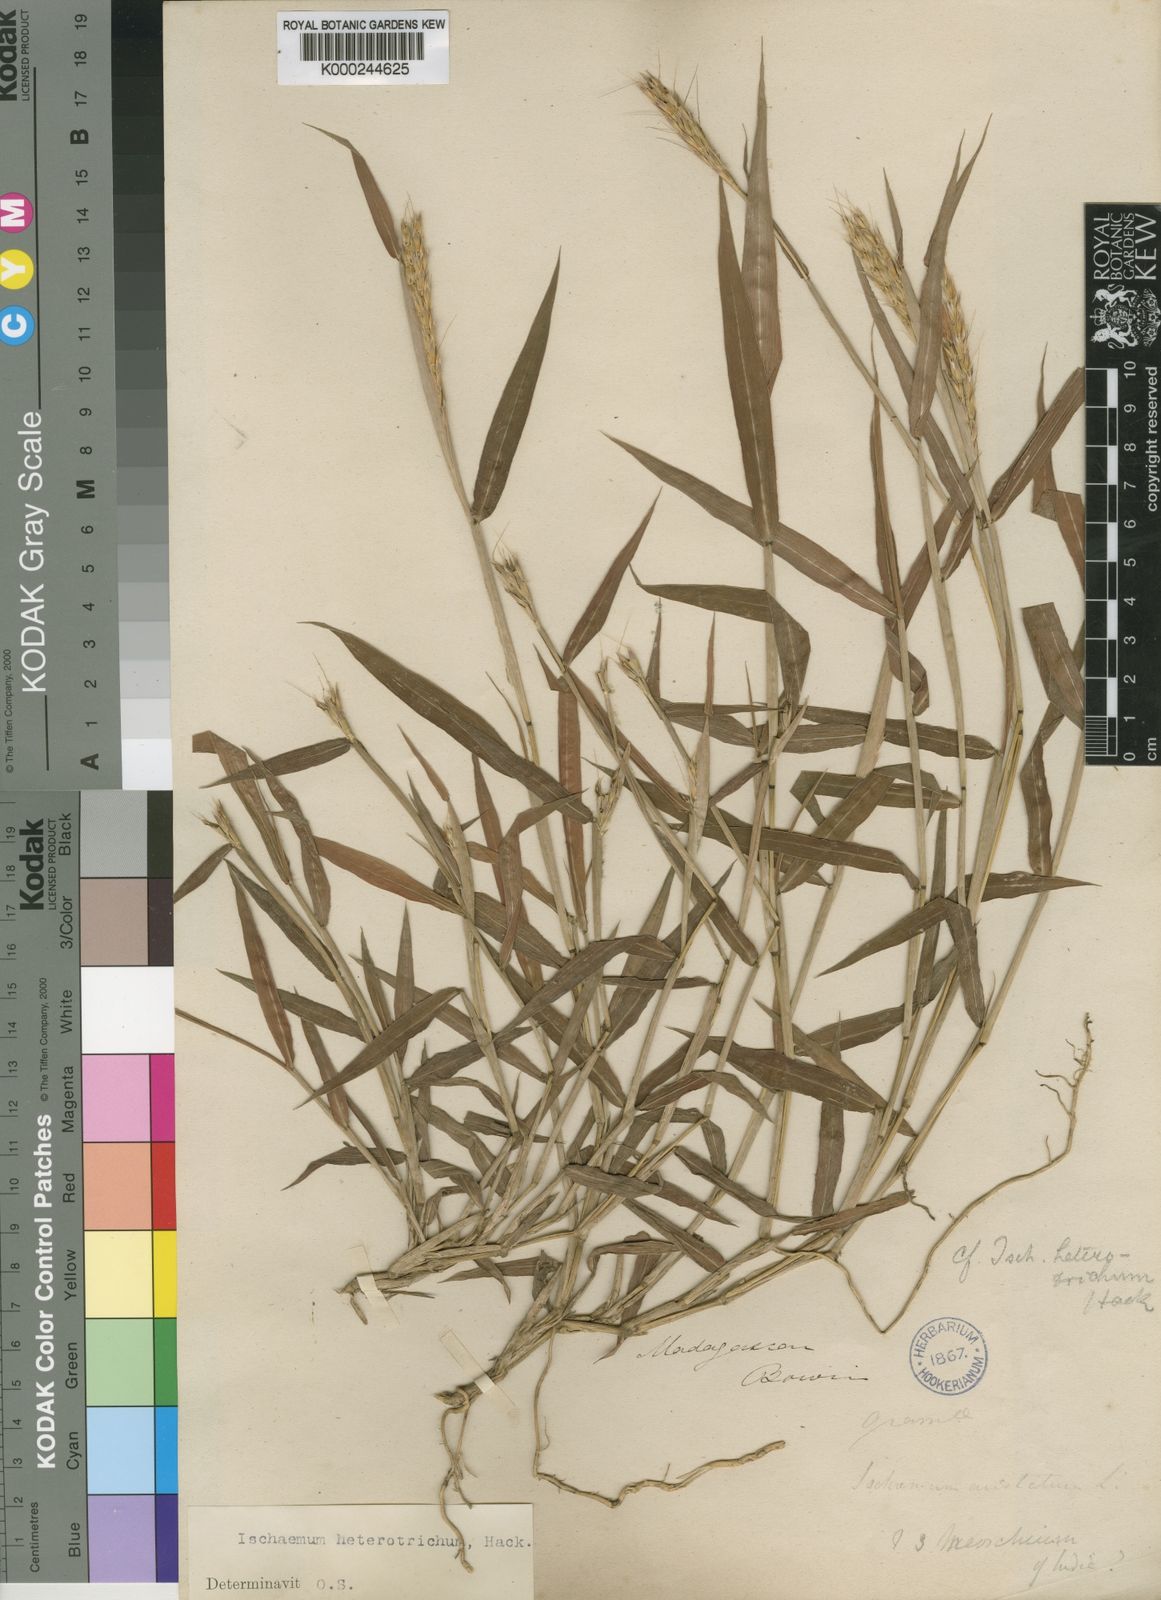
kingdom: Plantae
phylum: Tracheophyta
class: Liliopsida
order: Poales
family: Poaceae
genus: Ischaemum
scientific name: Ischaemum heterotrichum
